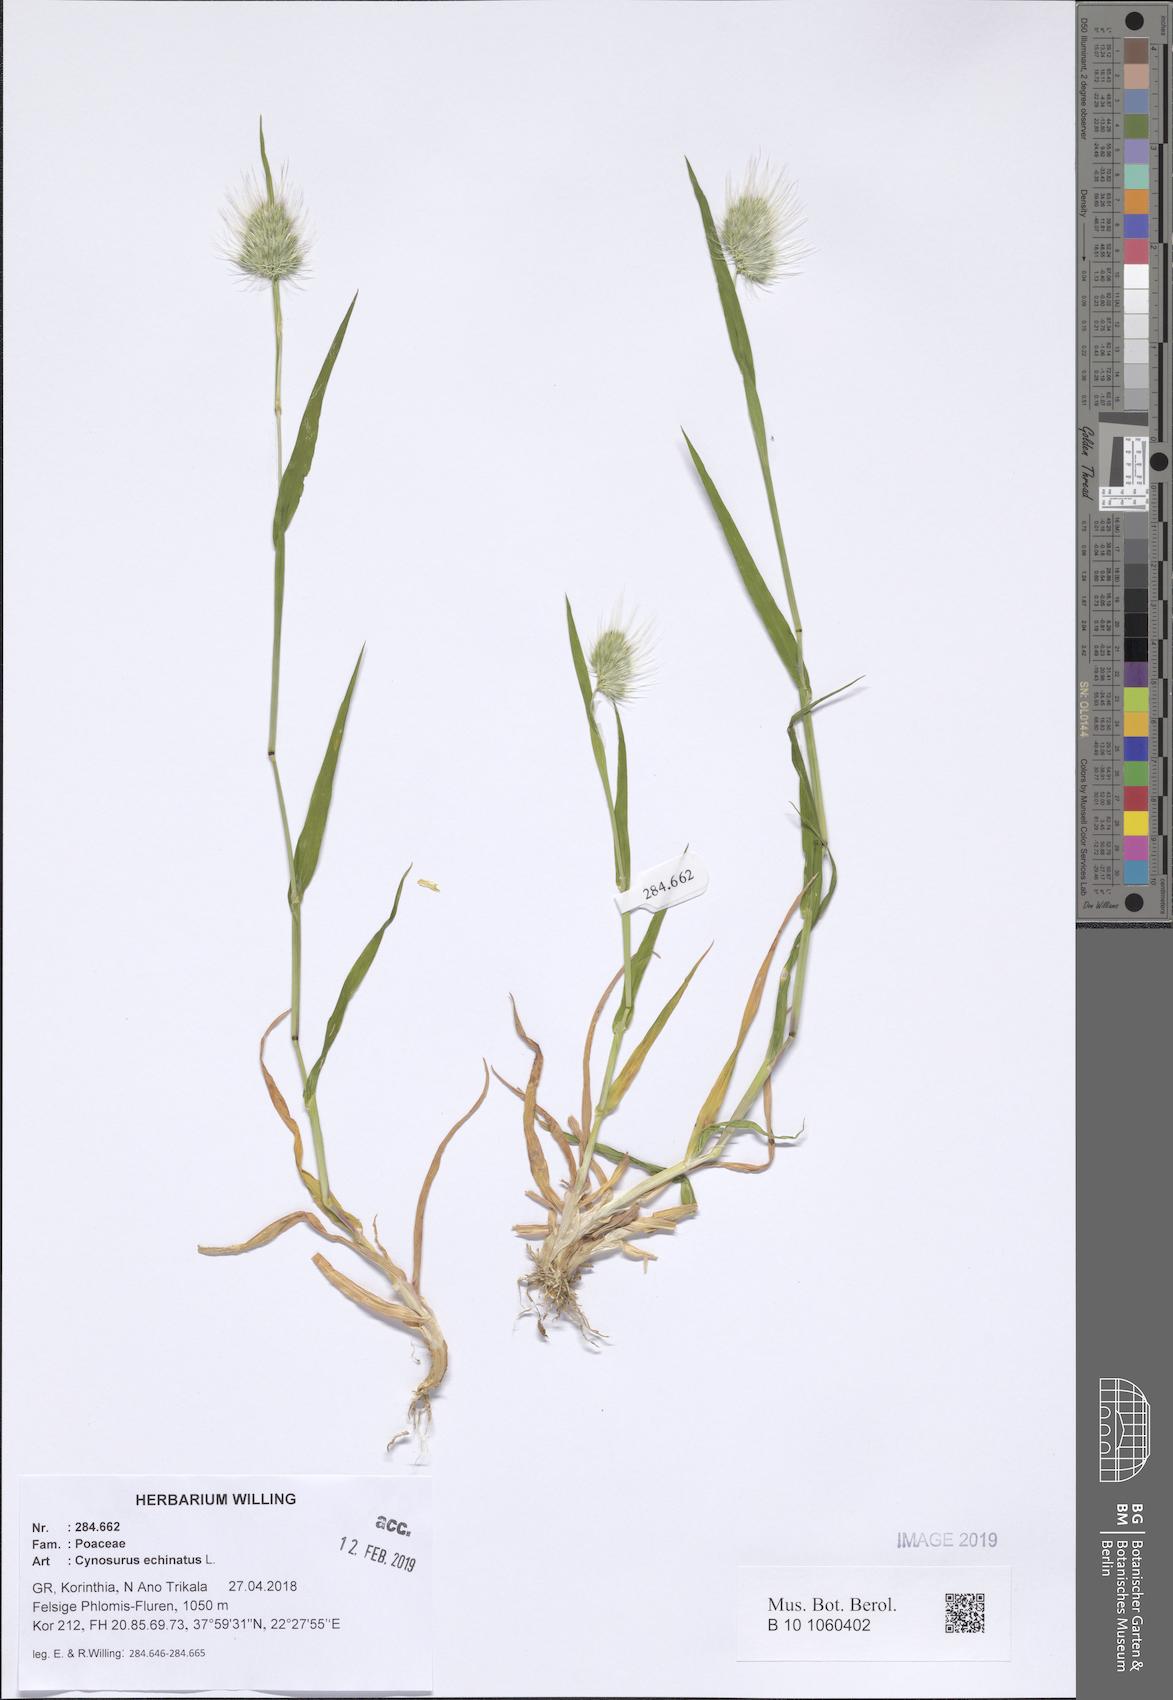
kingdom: Plantae
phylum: Tracheophyta
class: Liliopsida
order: Poales
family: Poaceae
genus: Cynosurus
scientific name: Cynosurus echinatus
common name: Rough dog's-tail
